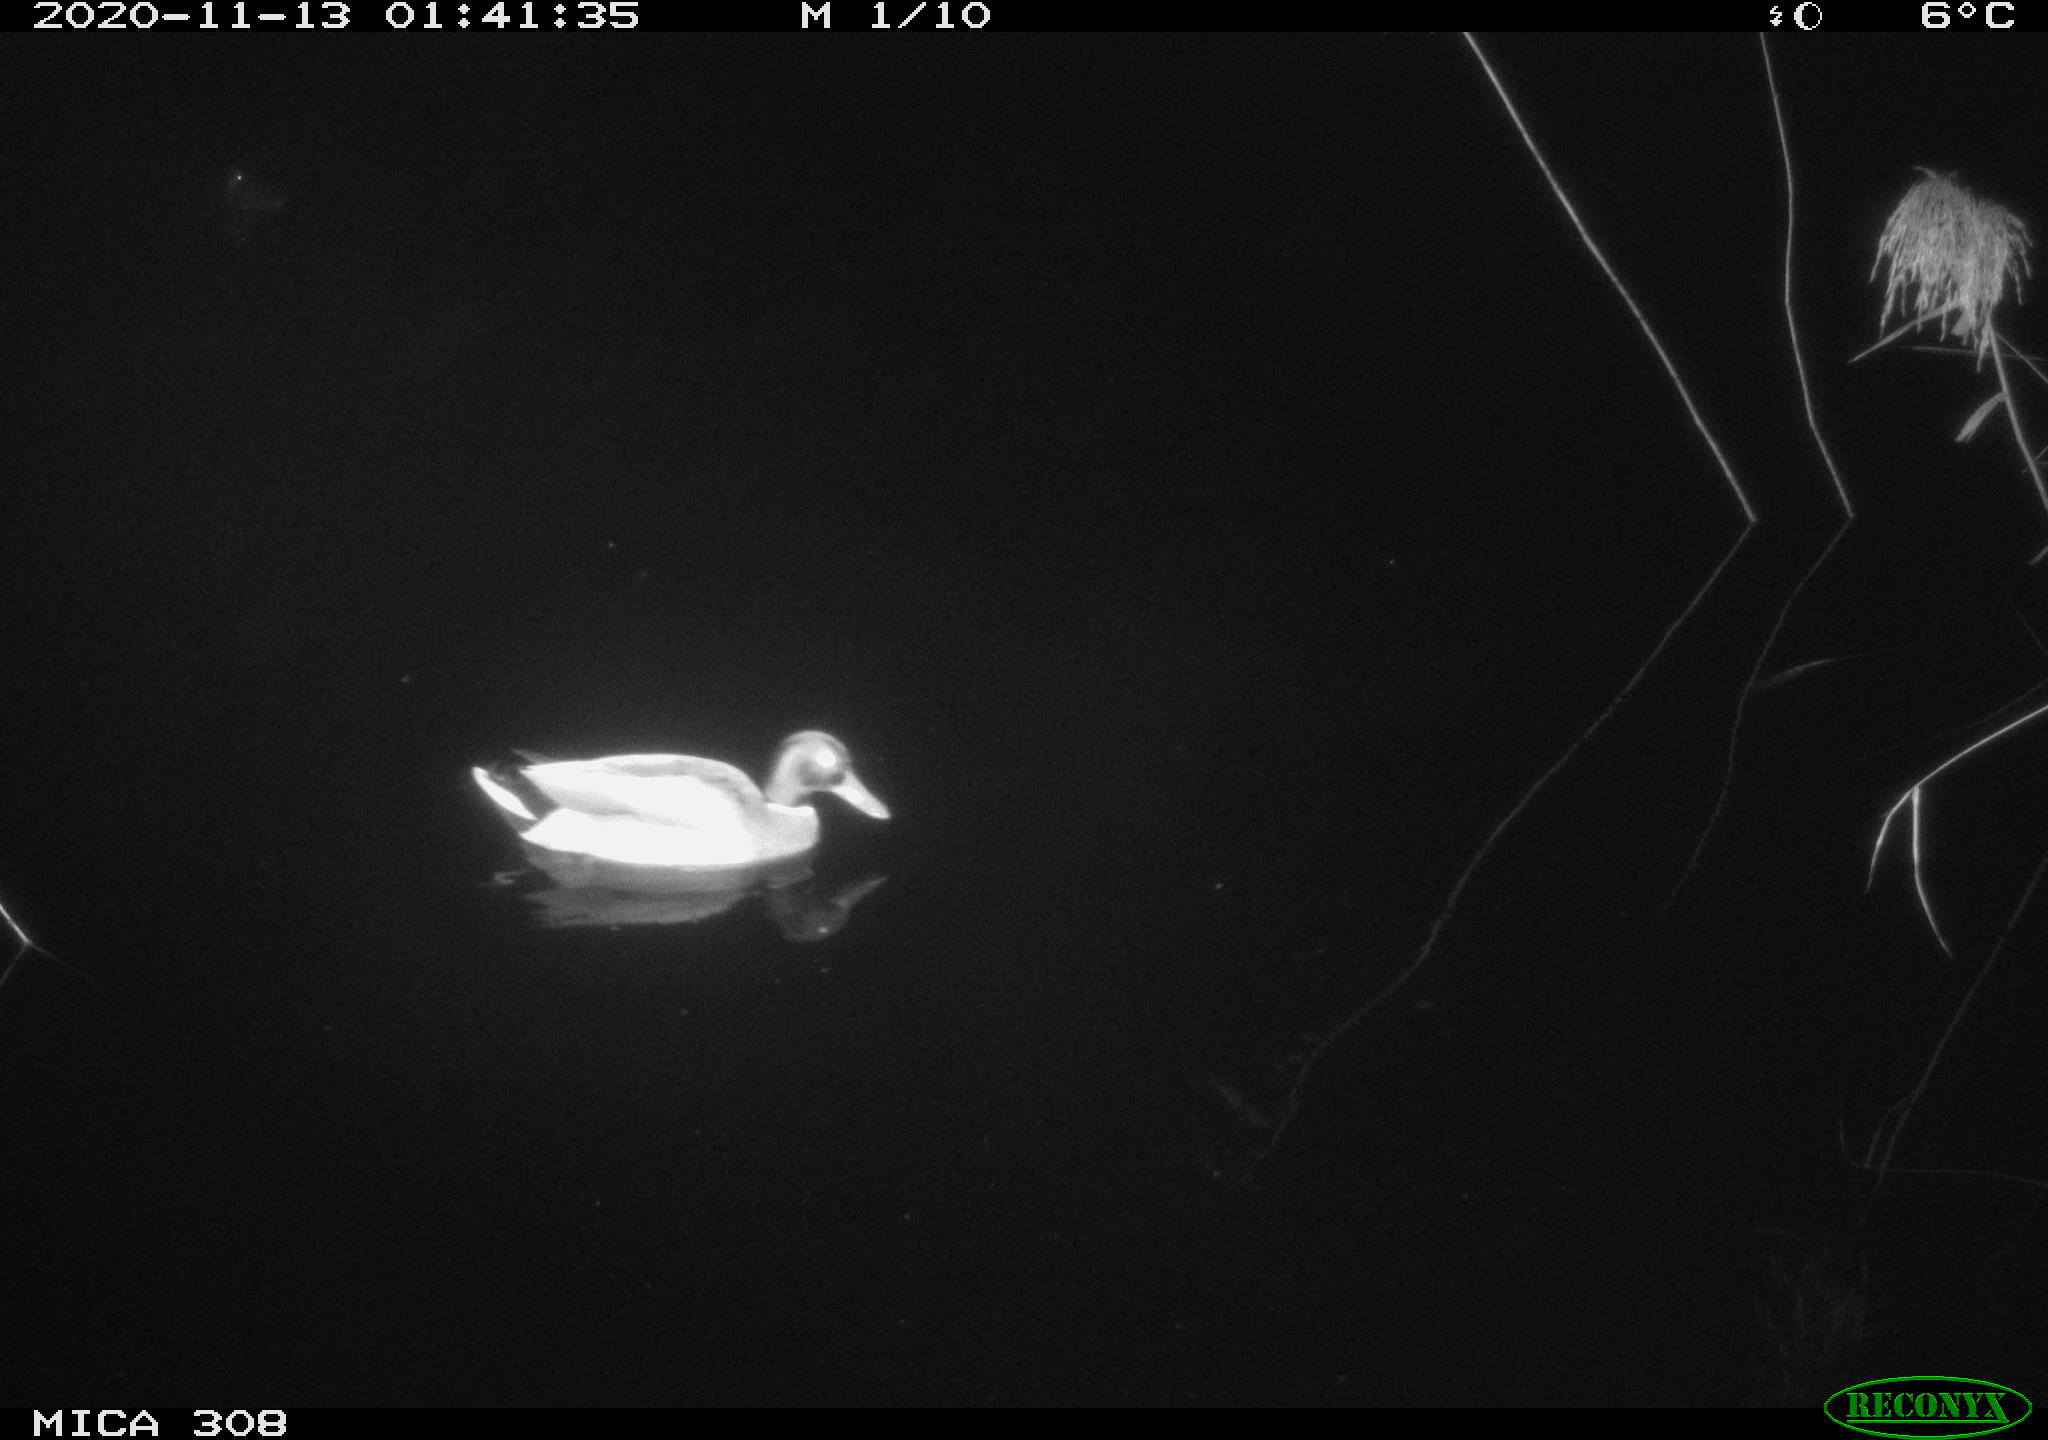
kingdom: Animalia
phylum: Chordata
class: Aves
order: Anseriformes
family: Anatidae
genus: Anas
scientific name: Anas platyrhynchos
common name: Mallard
